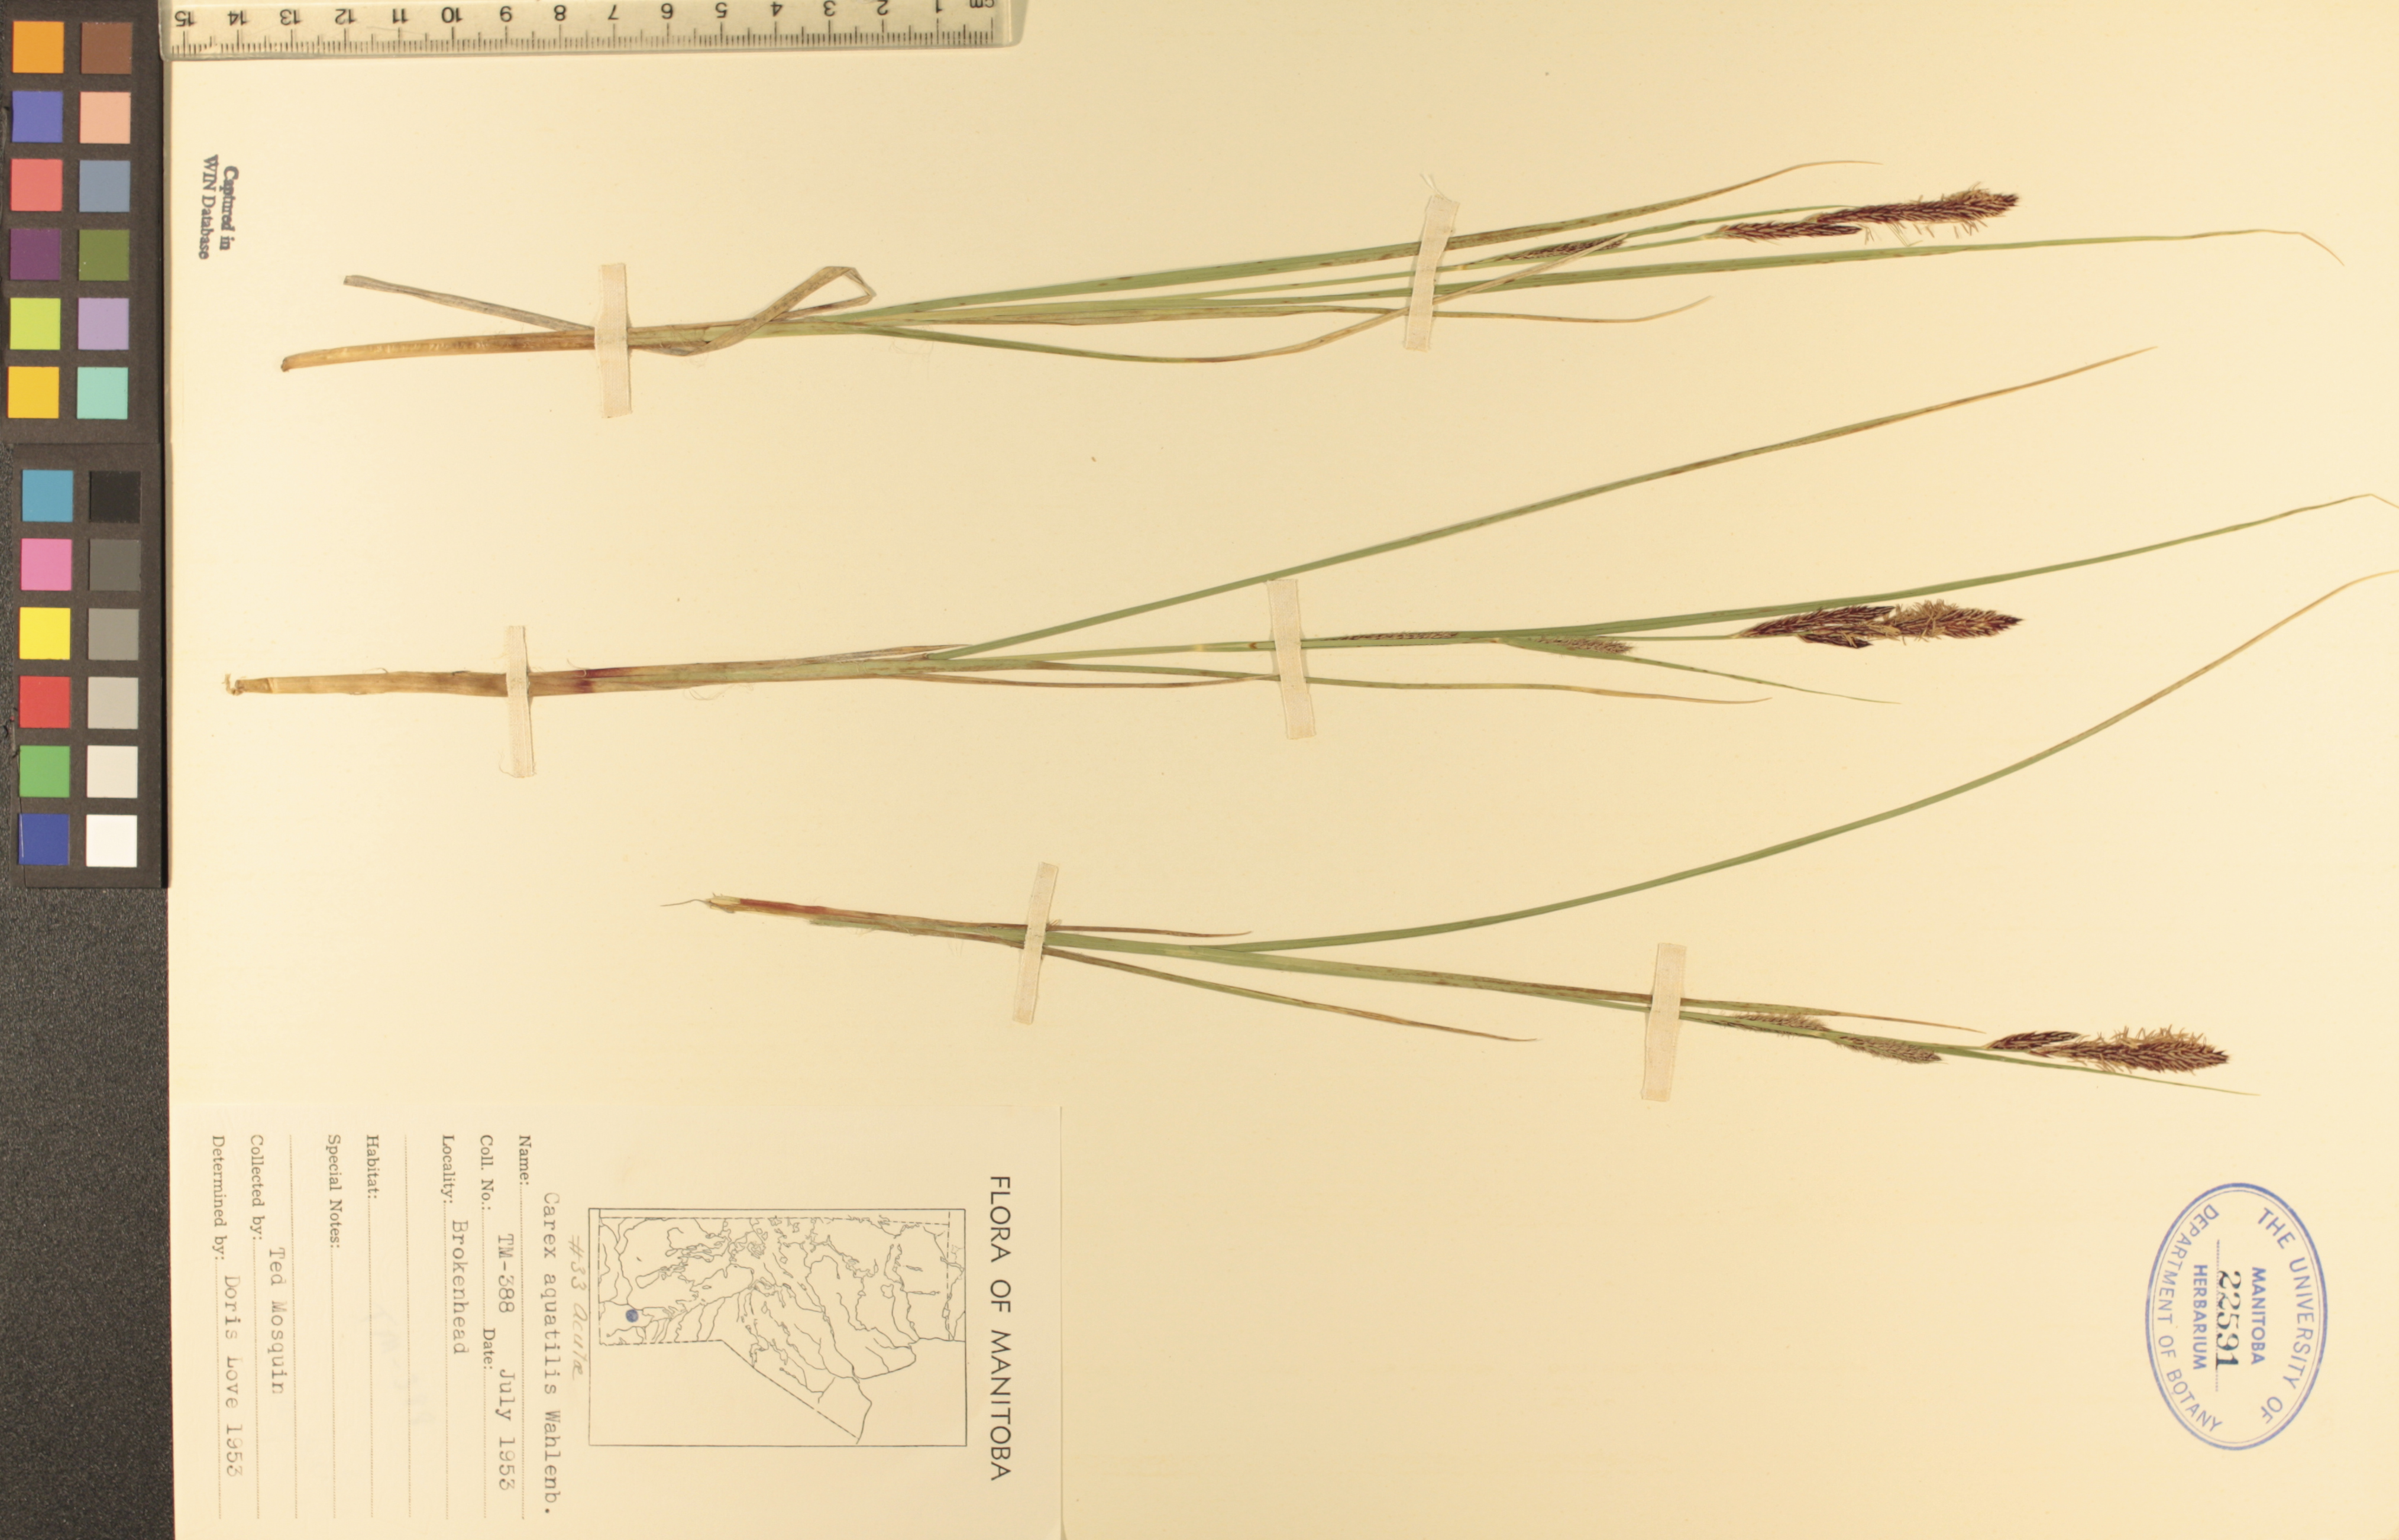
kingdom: Plantae
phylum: Tracheophyta
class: Liliopsida
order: Poales
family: Cyperaceae
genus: Carex
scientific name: Carex aquatilis
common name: Water sedge
